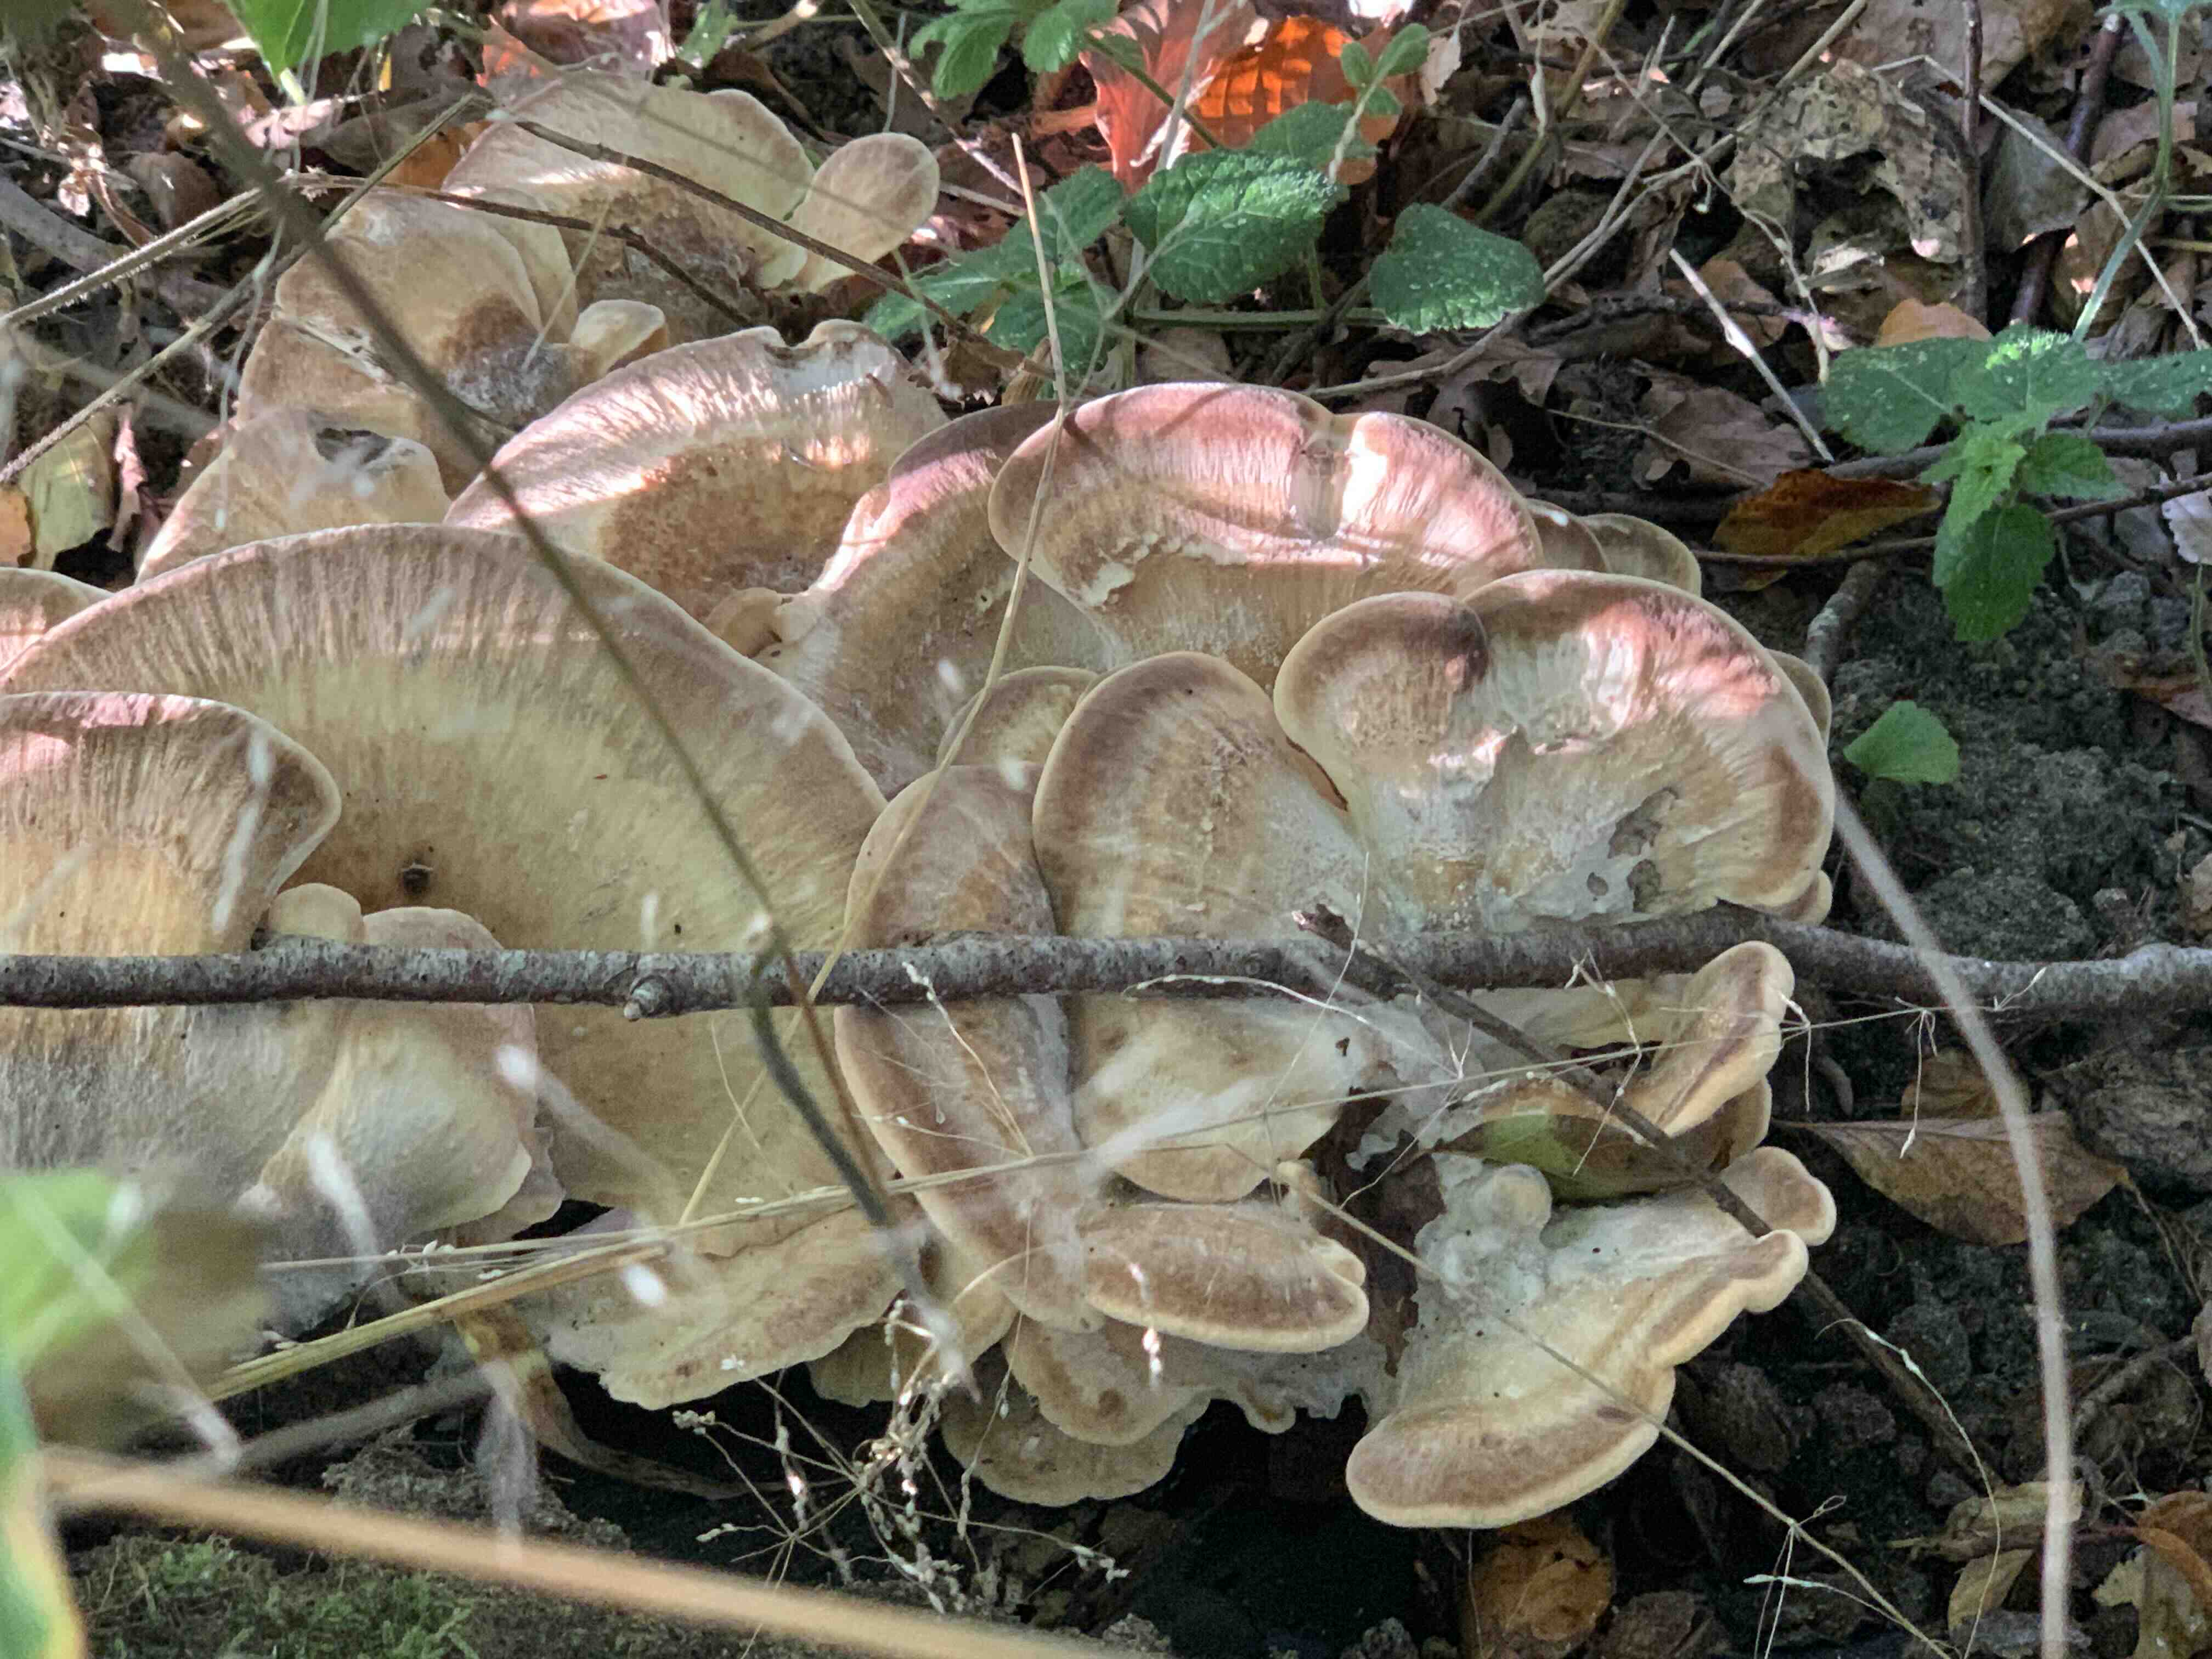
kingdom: Fungi
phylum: Basidiomycota
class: Agaricomycetes
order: Polyporales
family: Meripilaceae
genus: Meripilus
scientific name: Meripilus giganteus
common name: kæmpeporesvamp
